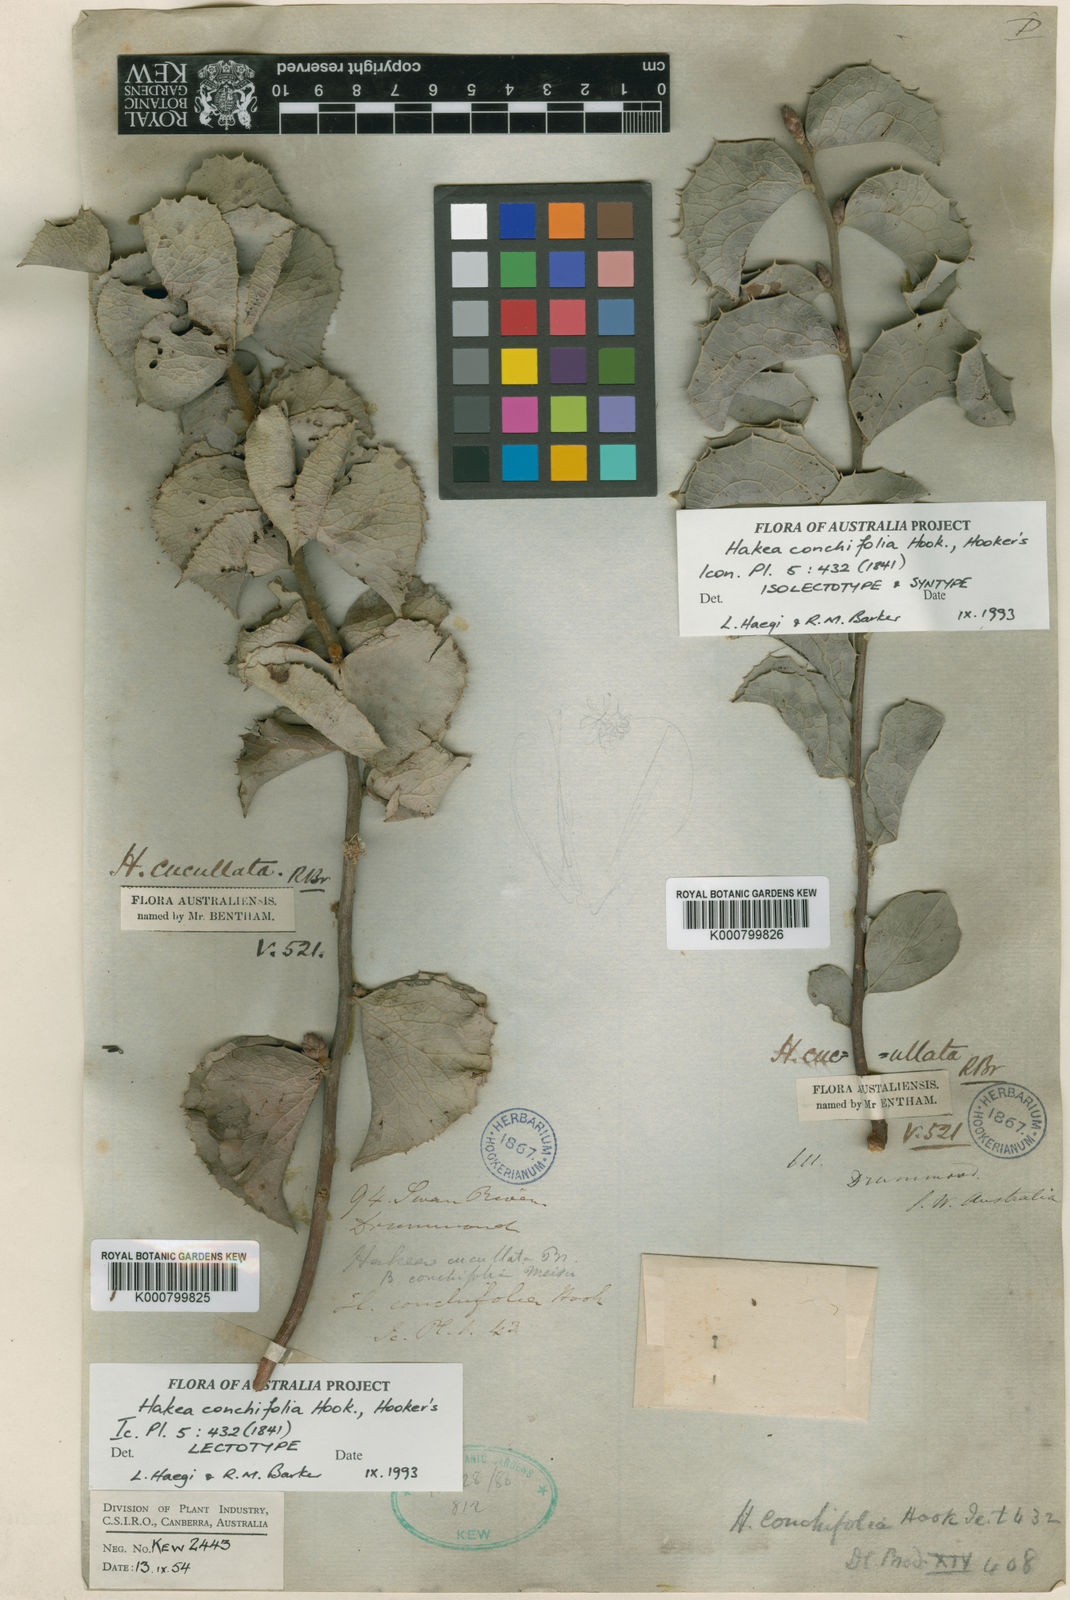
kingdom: Plantae
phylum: Tracheophyta
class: Magnoliopsida
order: Proteales
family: Proteaceae
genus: Hakea
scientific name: Hakea cucullata
